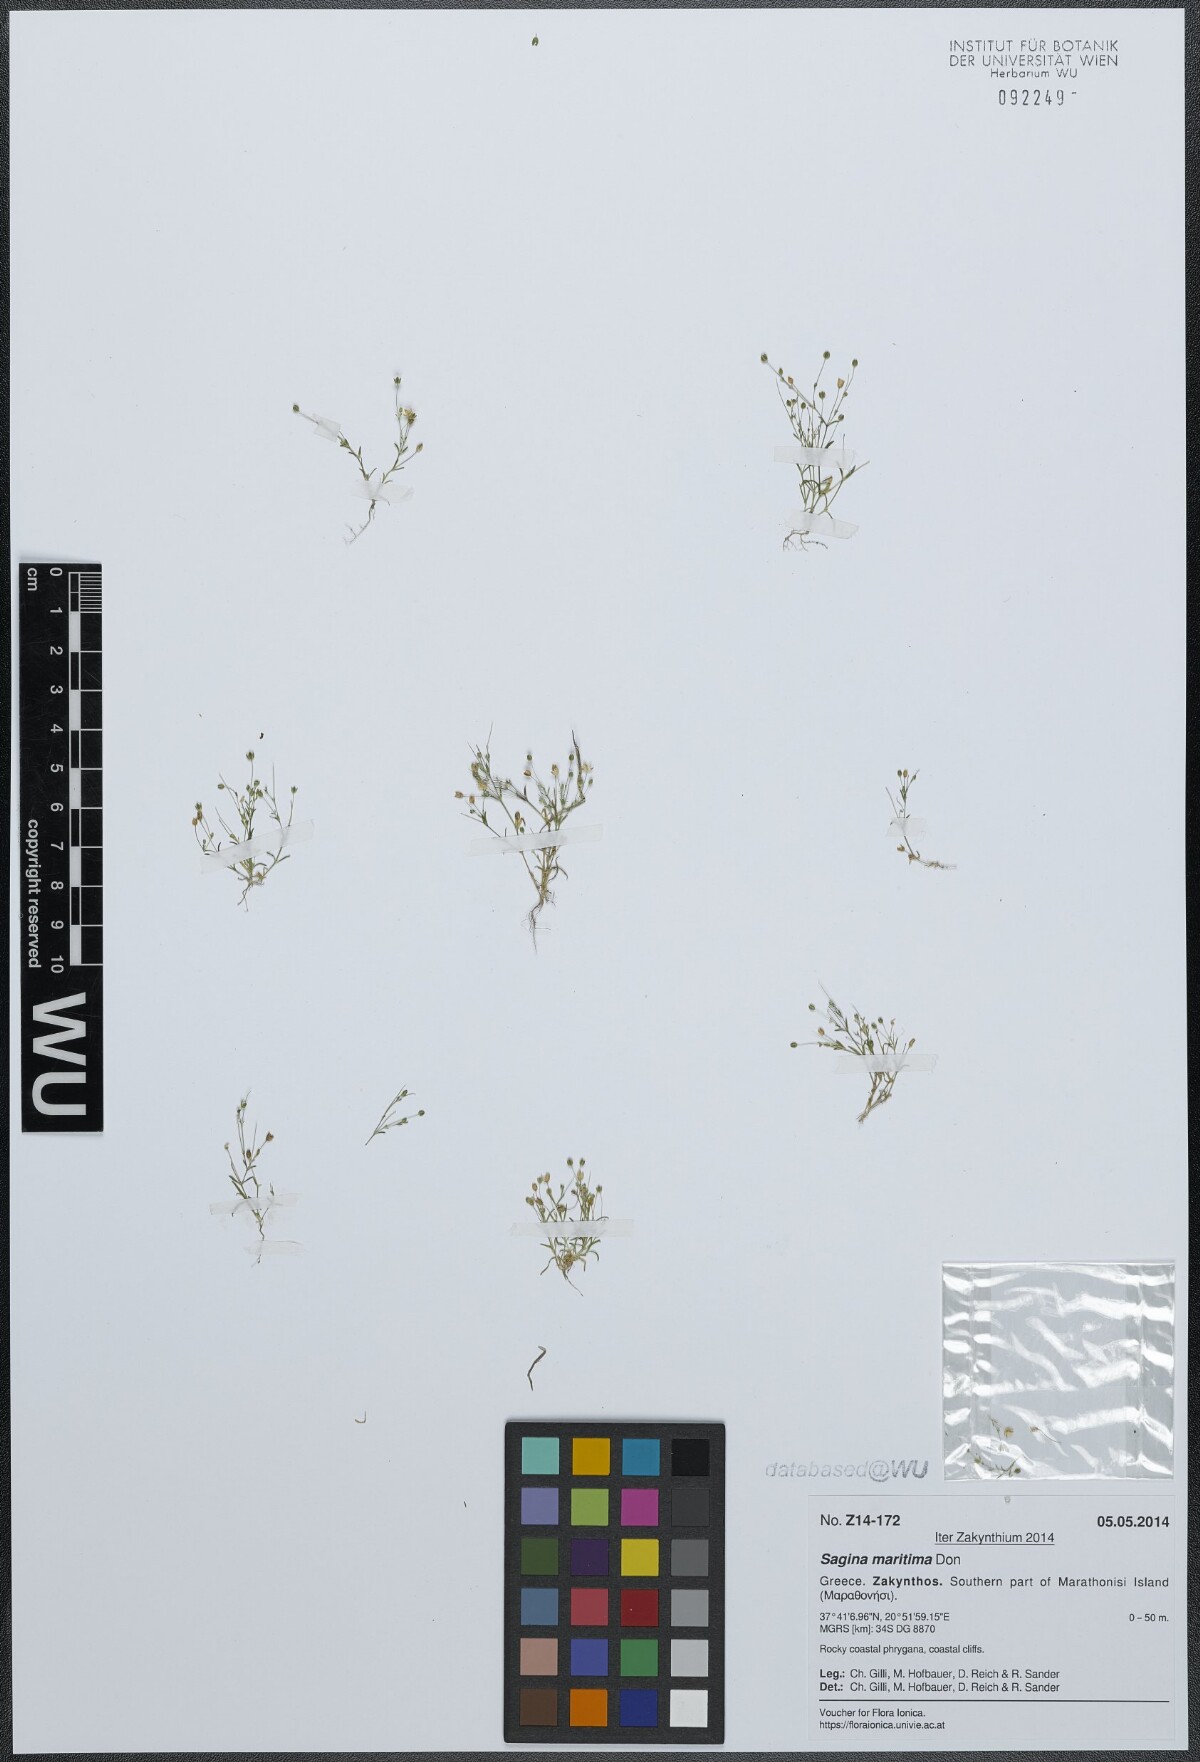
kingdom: Plantae
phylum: Tracheophyta
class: Magnoliopsida
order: Caryophyllales
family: Caryophyllaceae
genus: Sagina
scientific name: Sagina maritima
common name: Sea pearlwort
